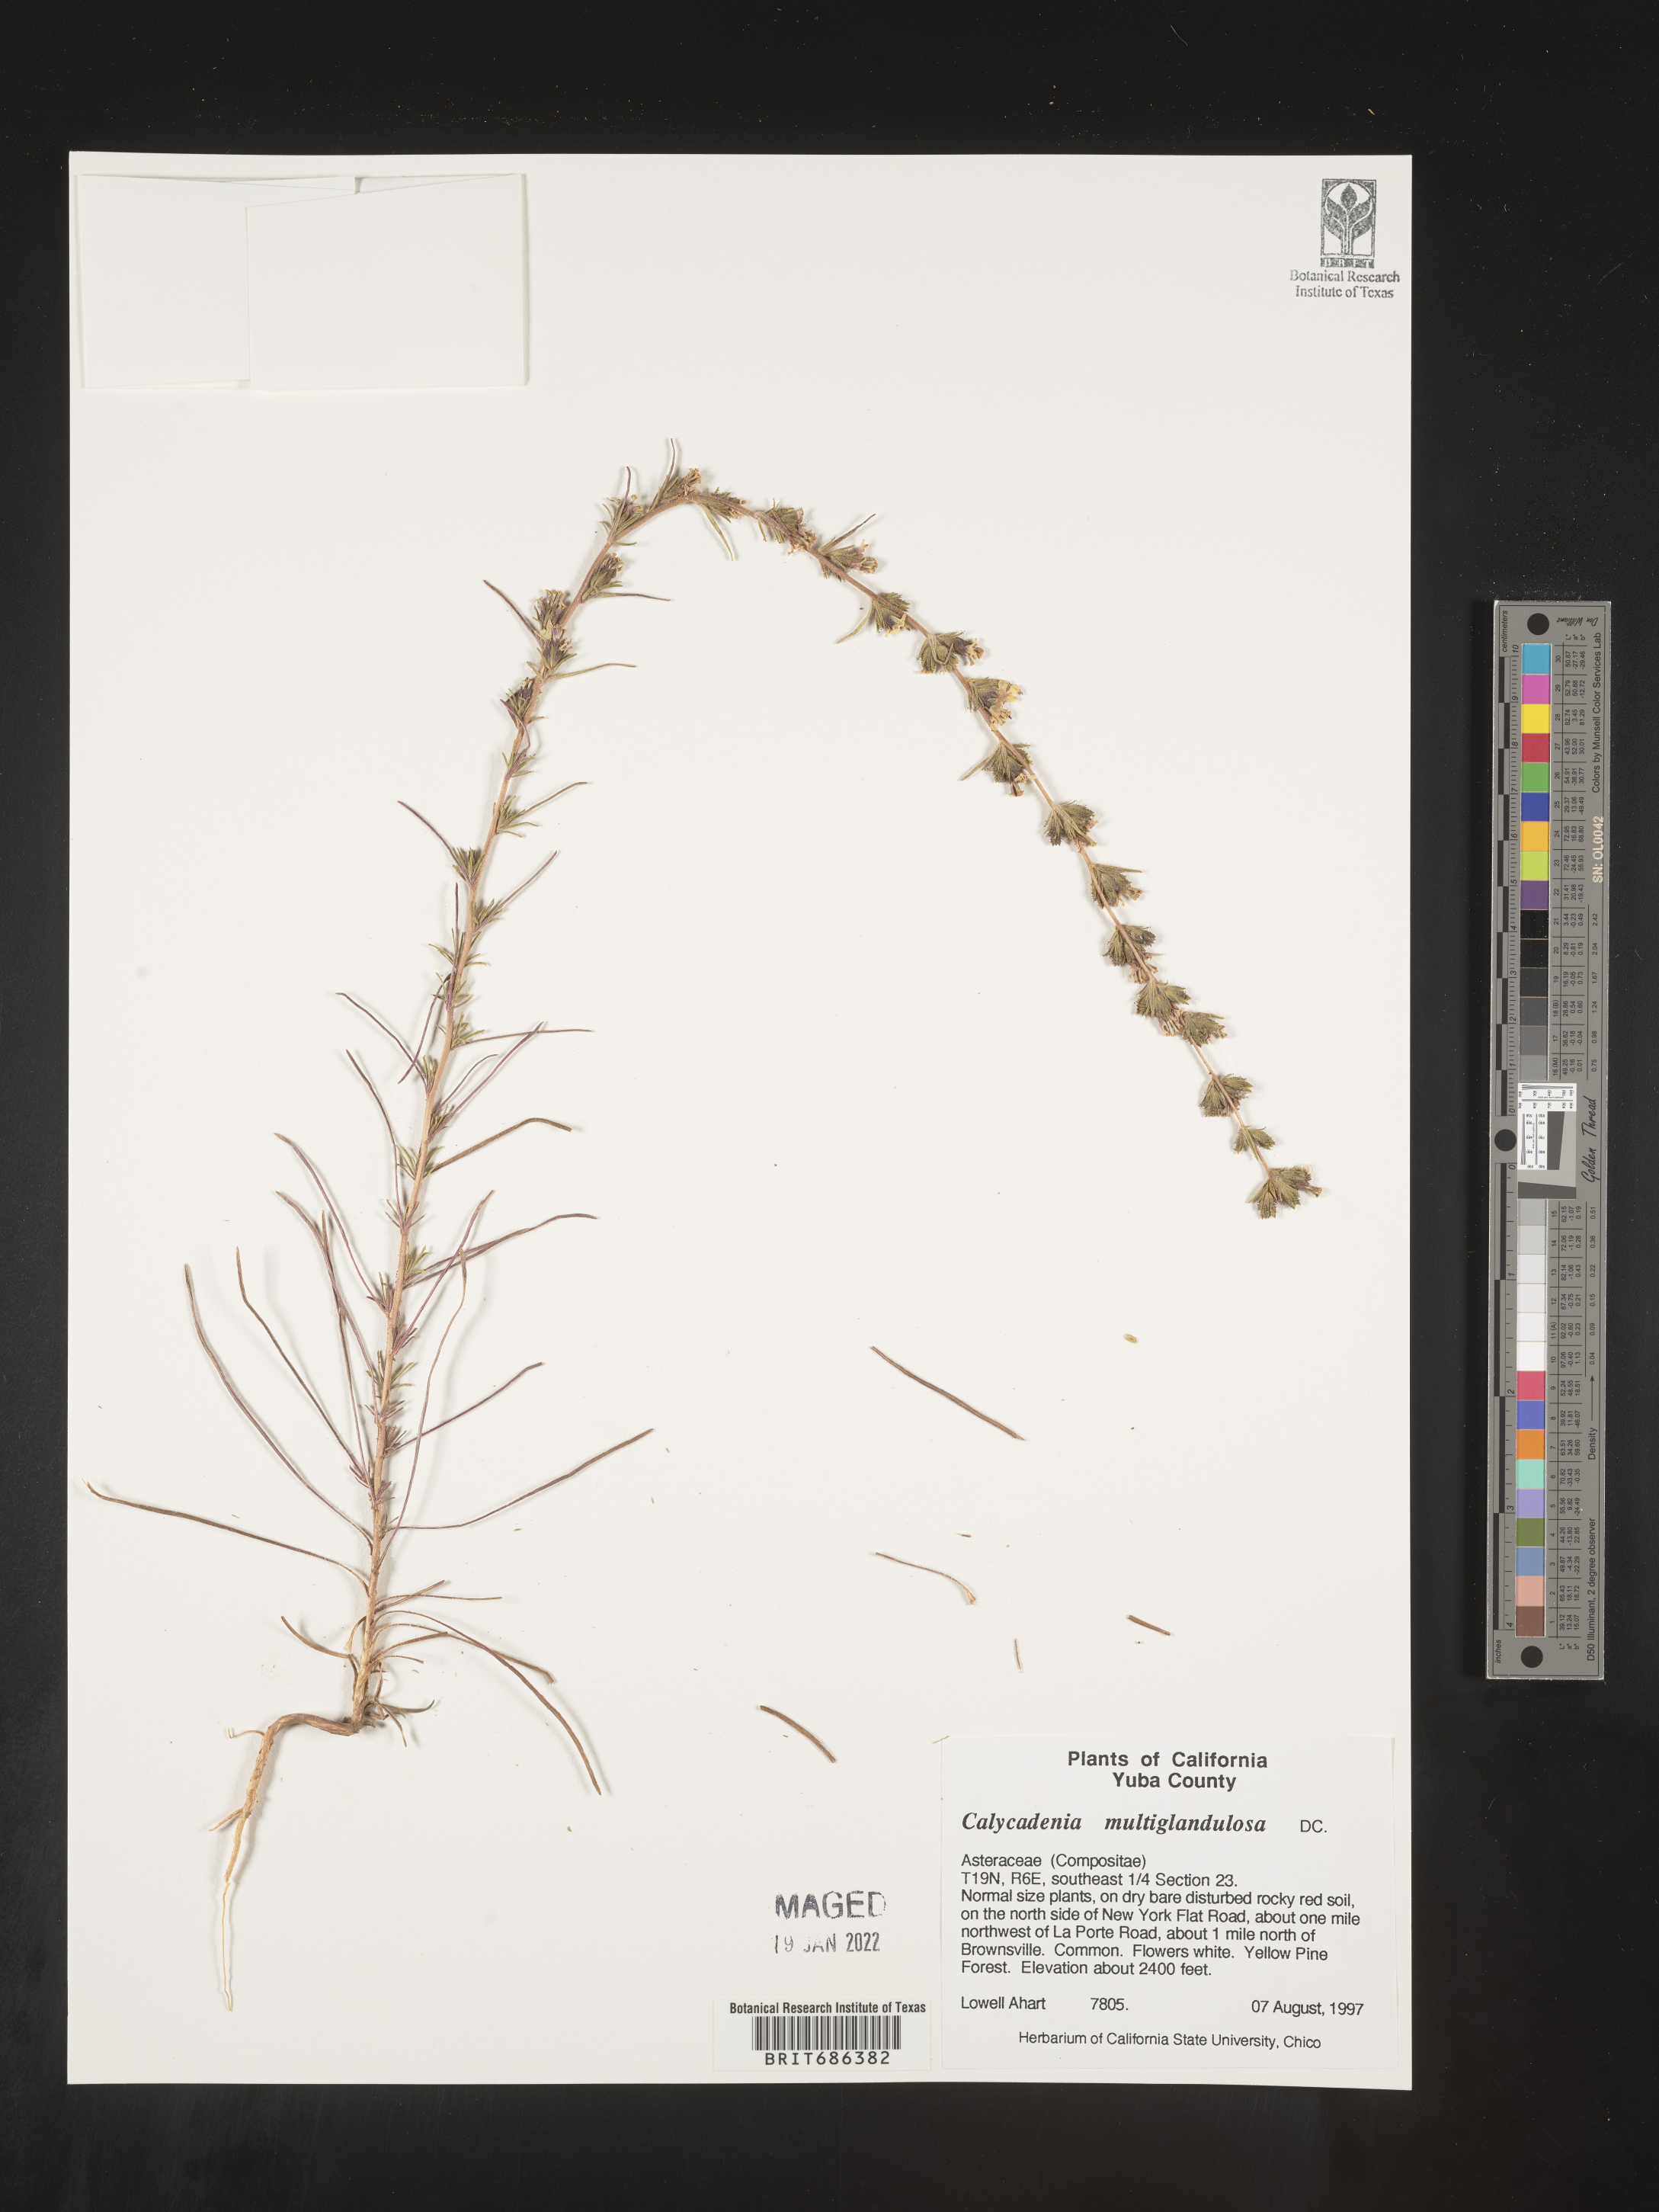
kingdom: Plantae
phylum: Tracheophyta
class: Magnoliopsida
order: Asterales
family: Asteraceae
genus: Calycadenia
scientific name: Calycadenia
